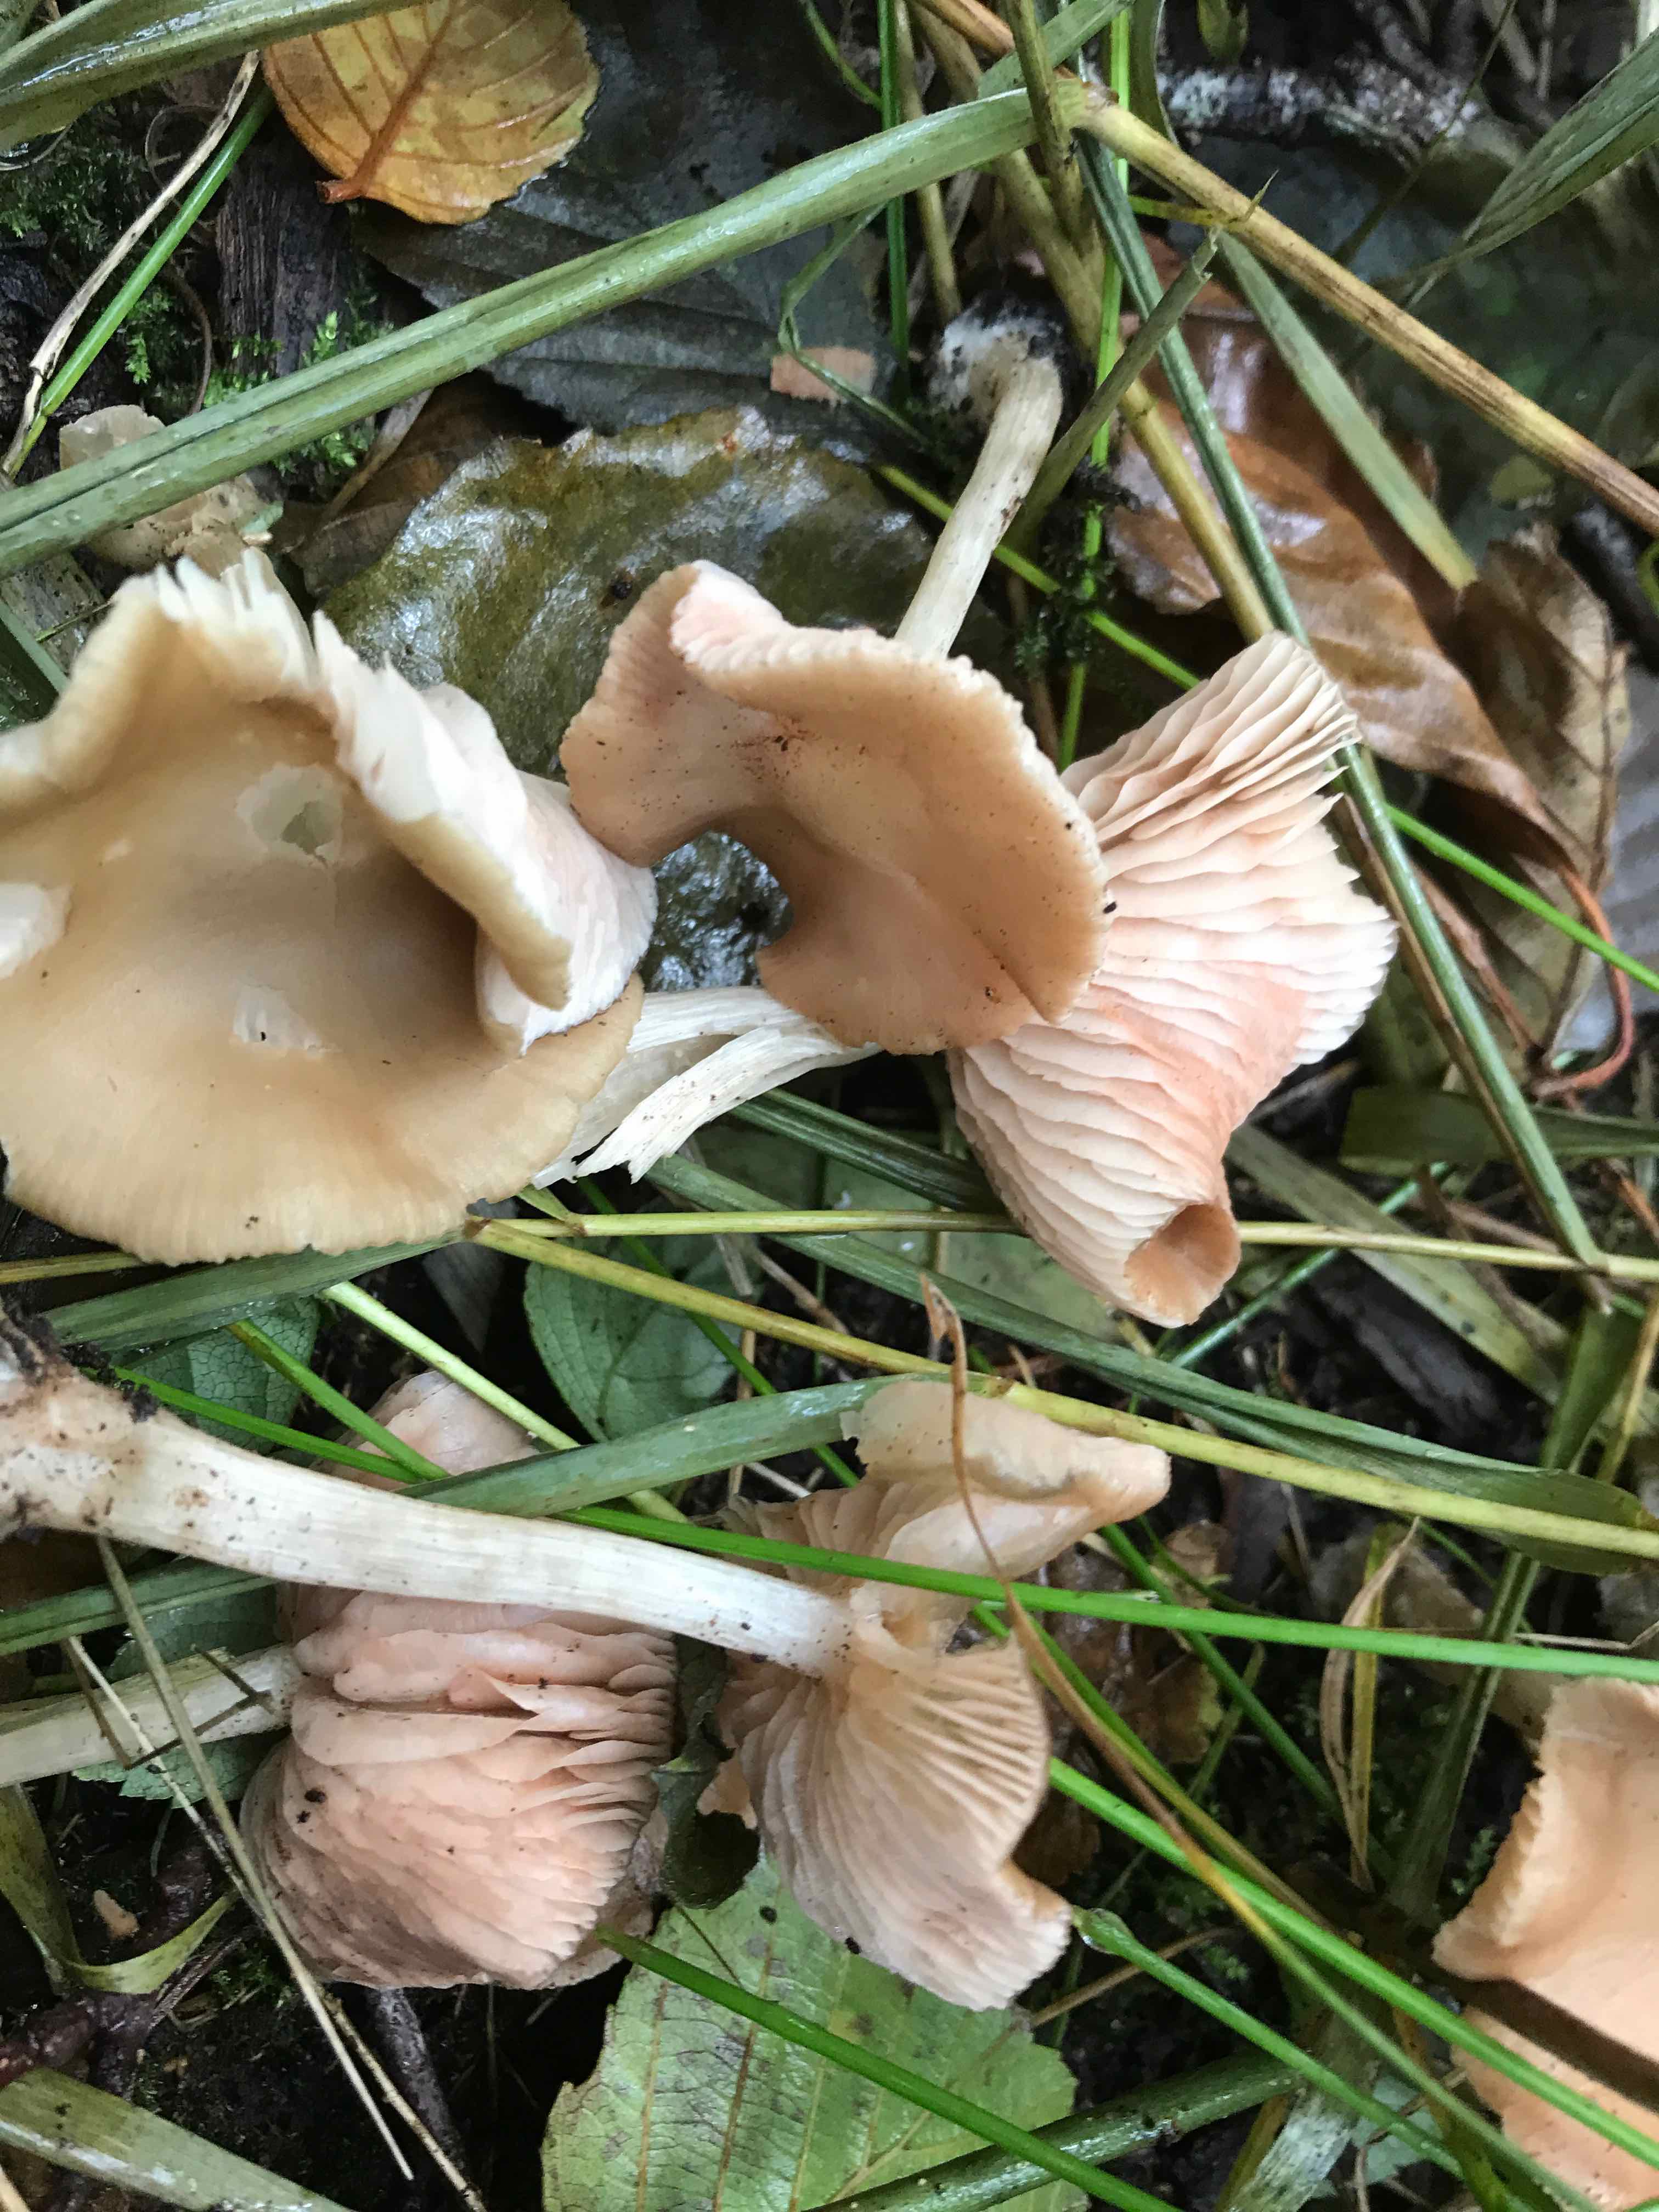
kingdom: Fungi
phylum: Basidiomycota
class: Agaricomycetes
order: Agaricales
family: Entolomataceae
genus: Entoloma
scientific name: Entoloma
